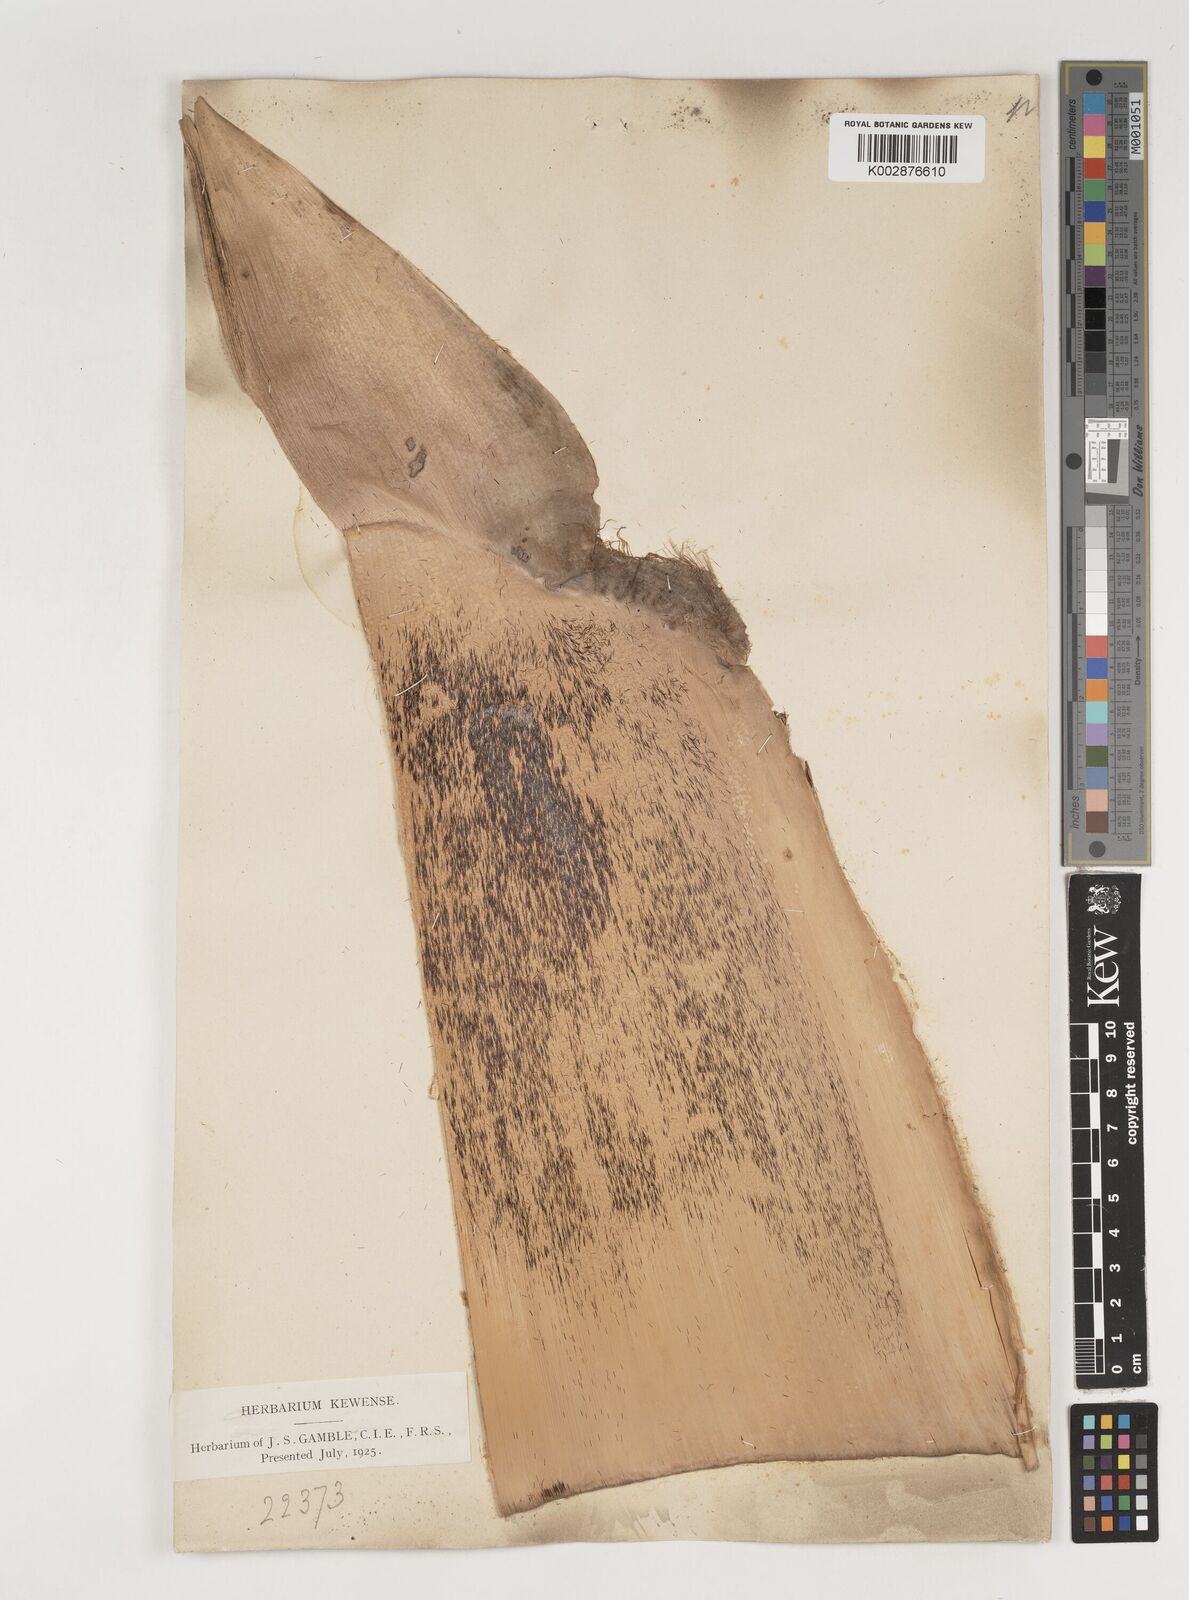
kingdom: Plantae
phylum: Tracheophyta
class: Liliopsida
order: Poales
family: Poaceae
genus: Bambusa
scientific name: Bambusa nutans
